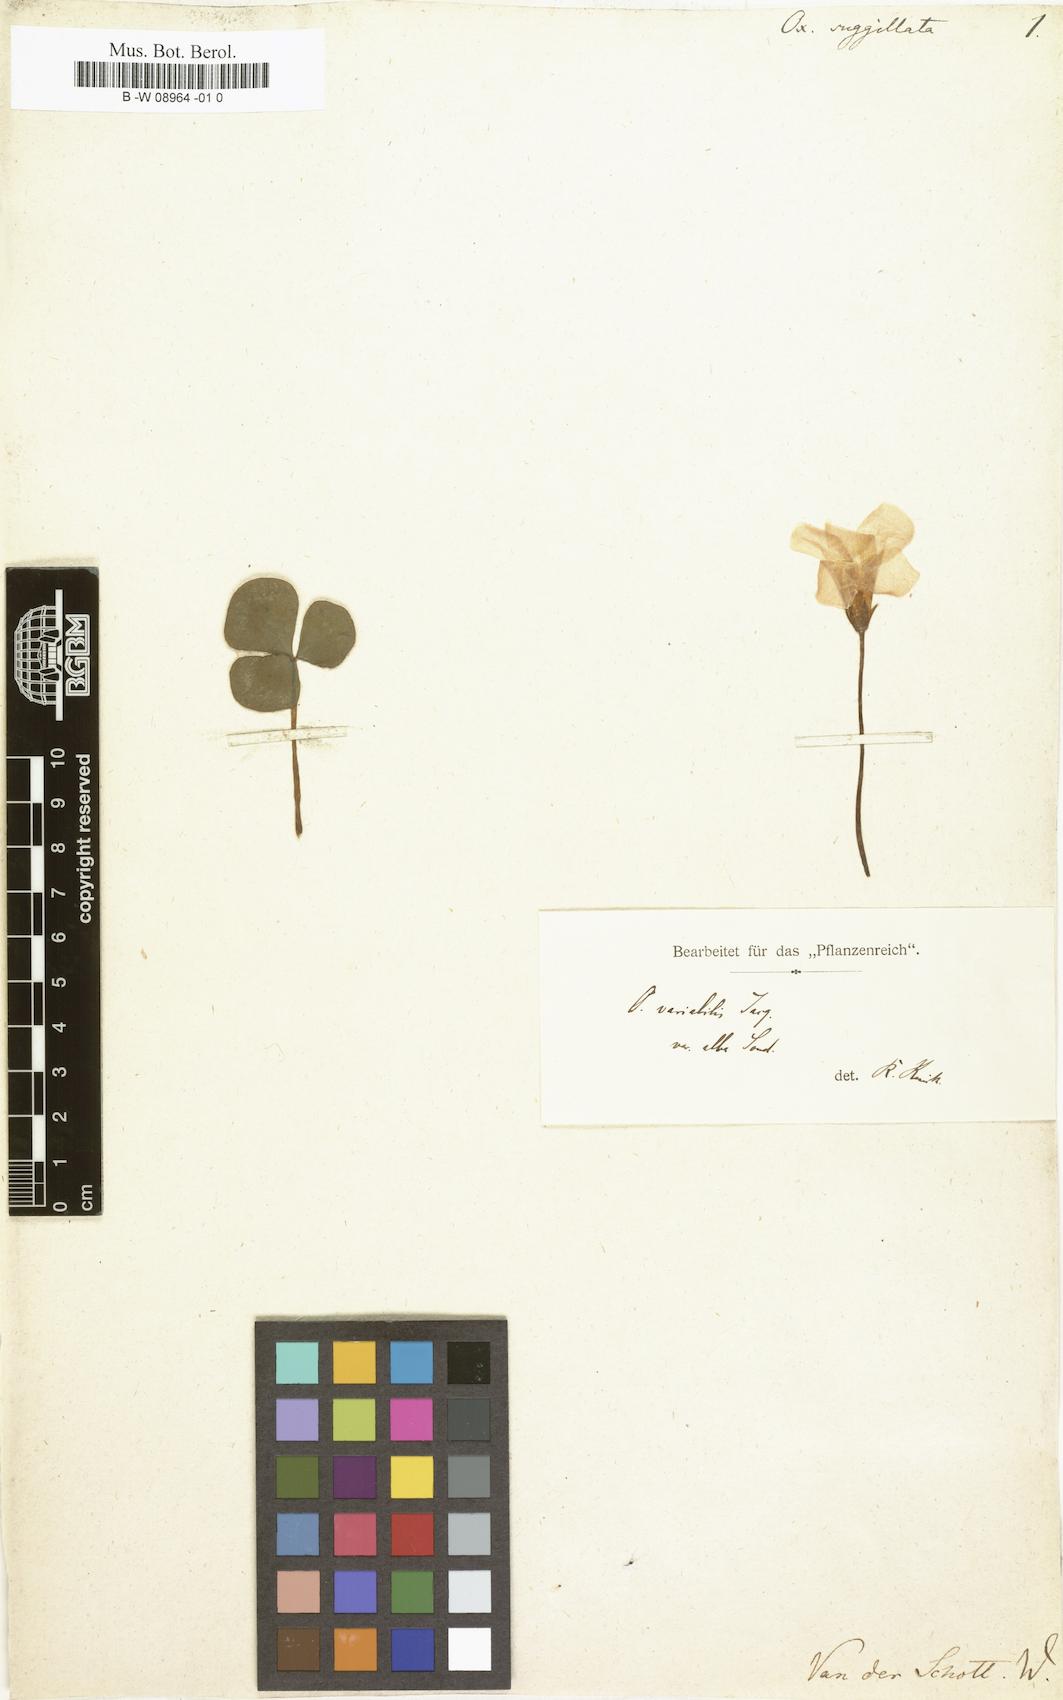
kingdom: Plantae
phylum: Tracheophyta
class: Magnoliopsida
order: Oxalidales
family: Oxalidaceae
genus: Oxalis
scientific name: Oxalis purpurea
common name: Purple woodsorrel
